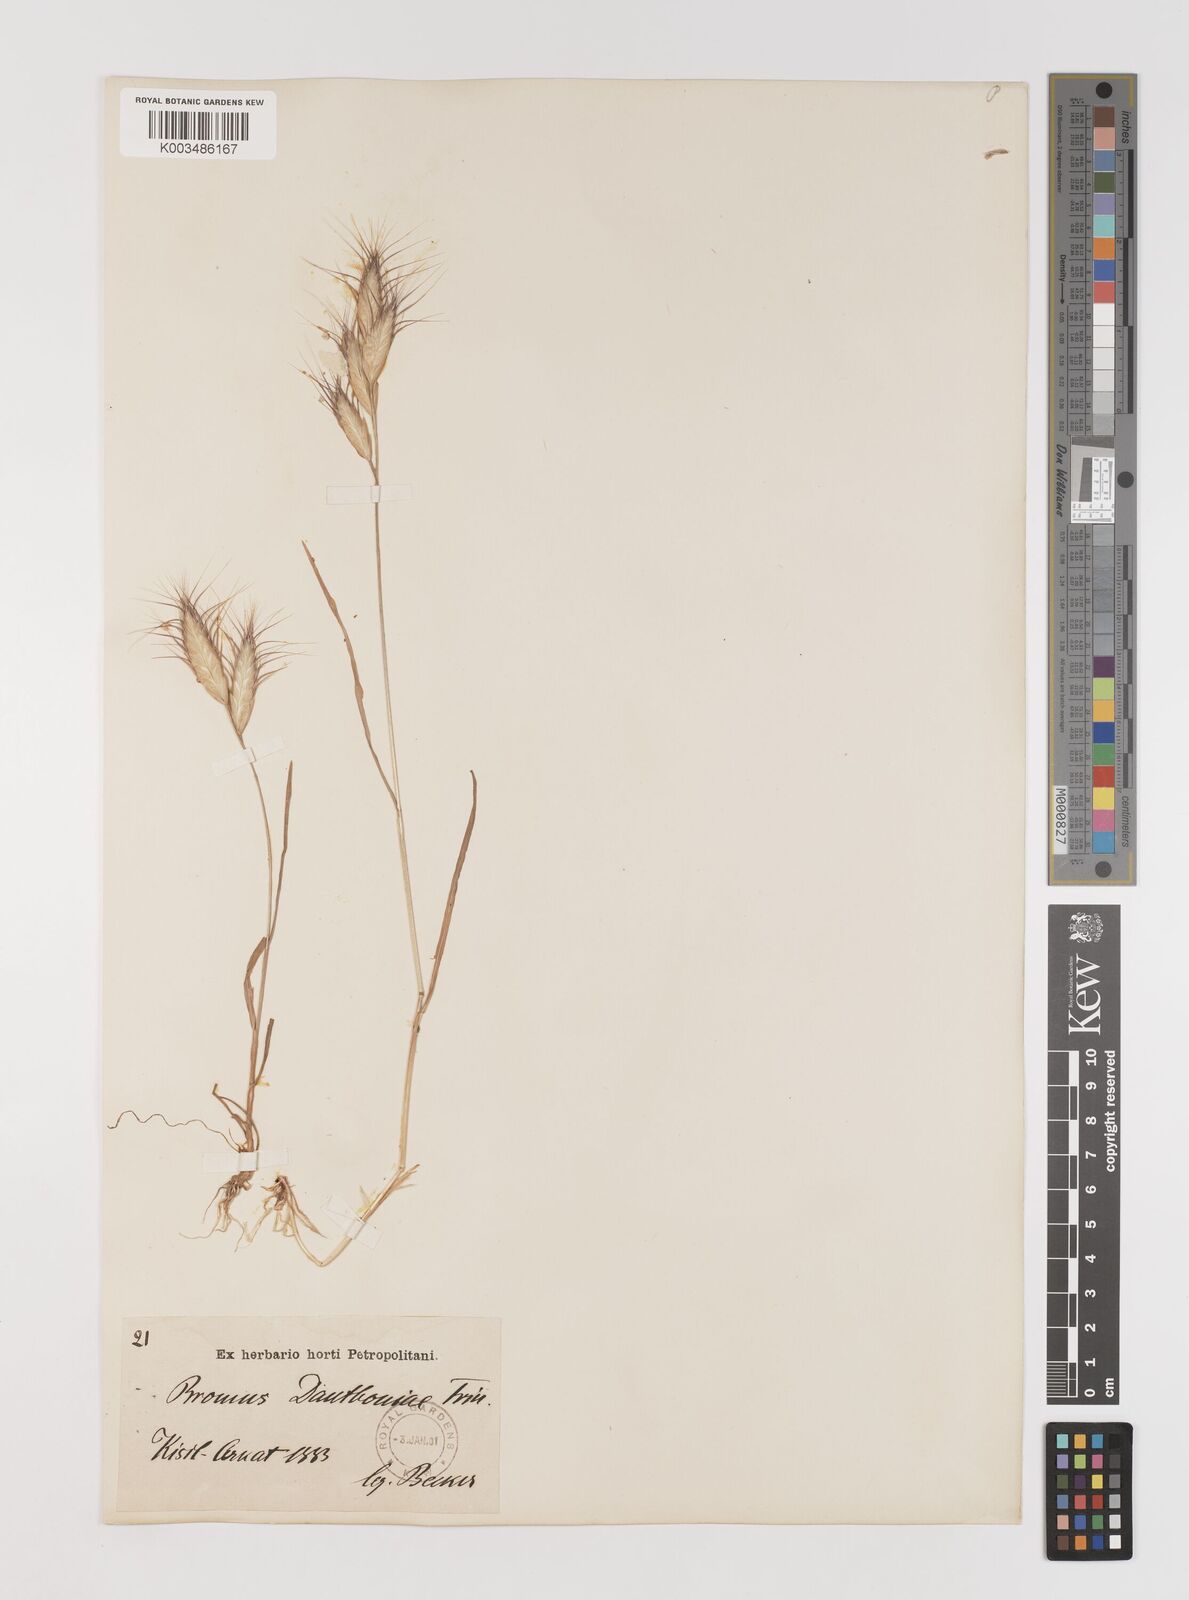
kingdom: Plantae
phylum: Tracheophyta
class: Liliopsida
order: Poales
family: Poaceae
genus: Bromus
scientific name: Bromus danthoniae
